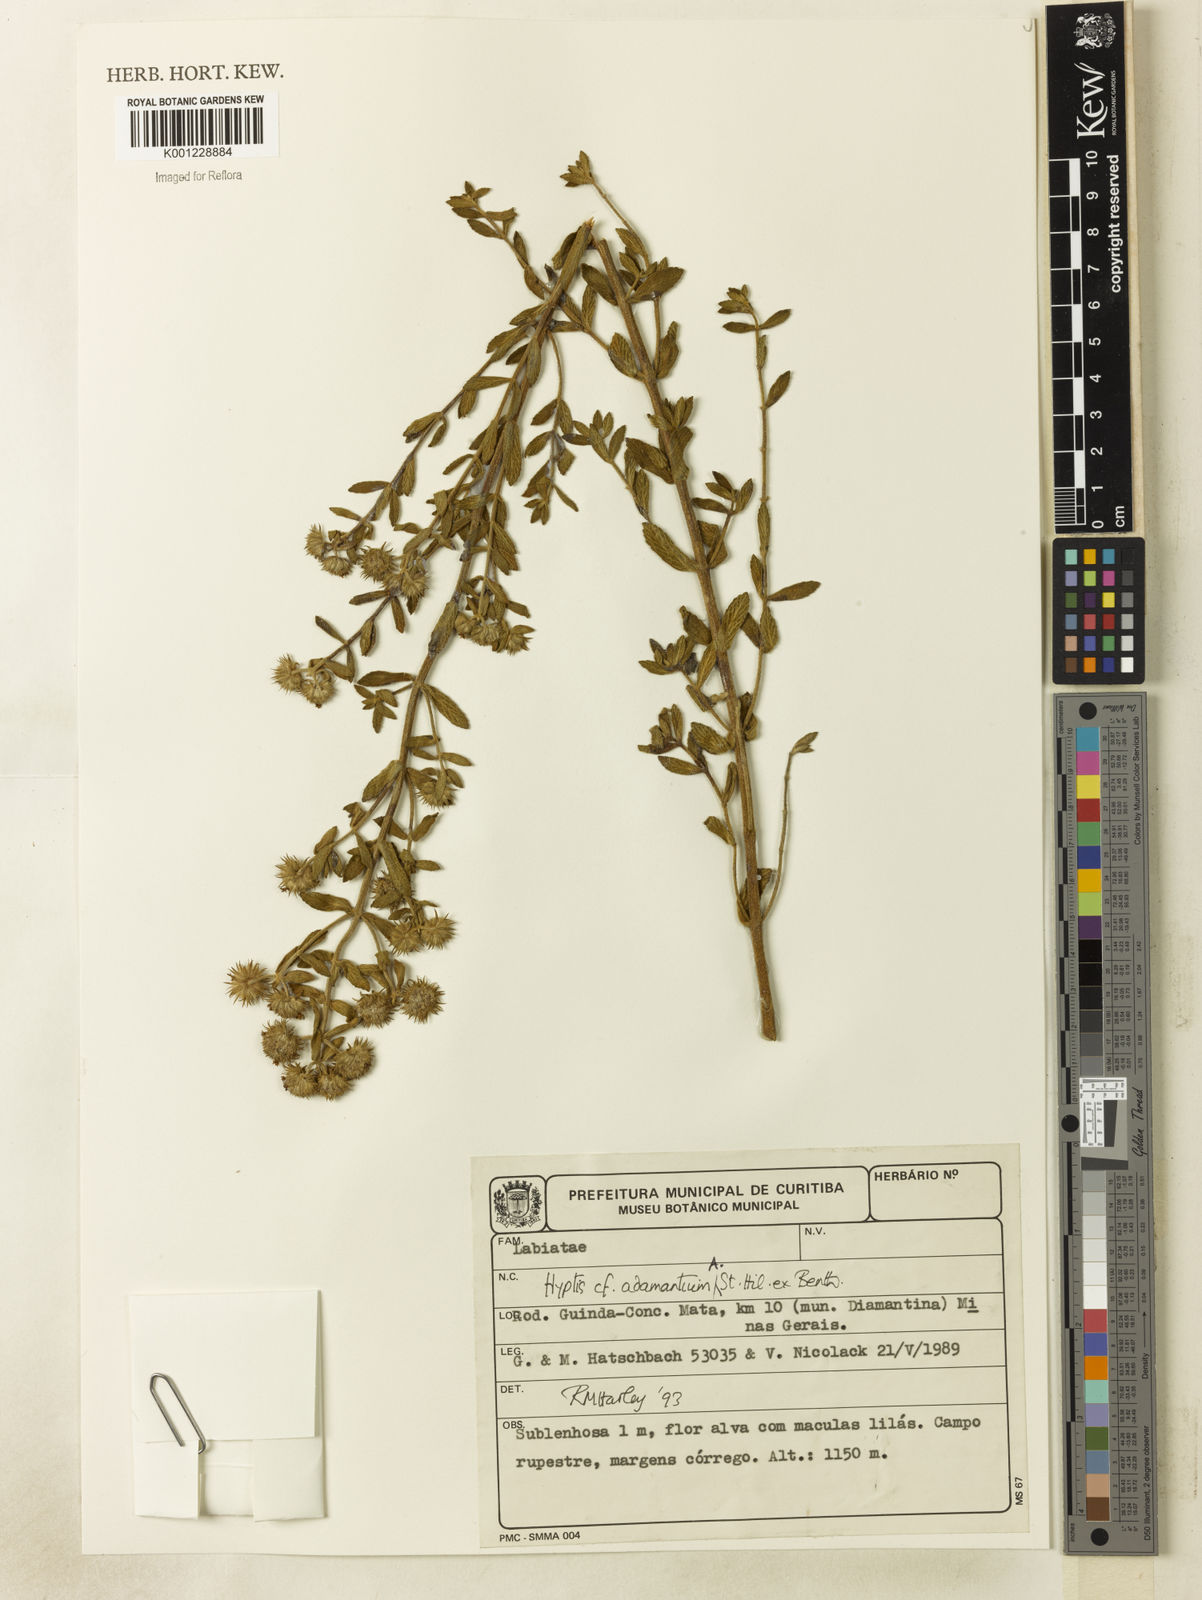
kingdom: Plantae
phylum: Tracheophyta
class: Magnoliopsida
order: Lamiales
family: Lamiaceae
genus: Hyptis
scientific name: Hyptis adamantium
